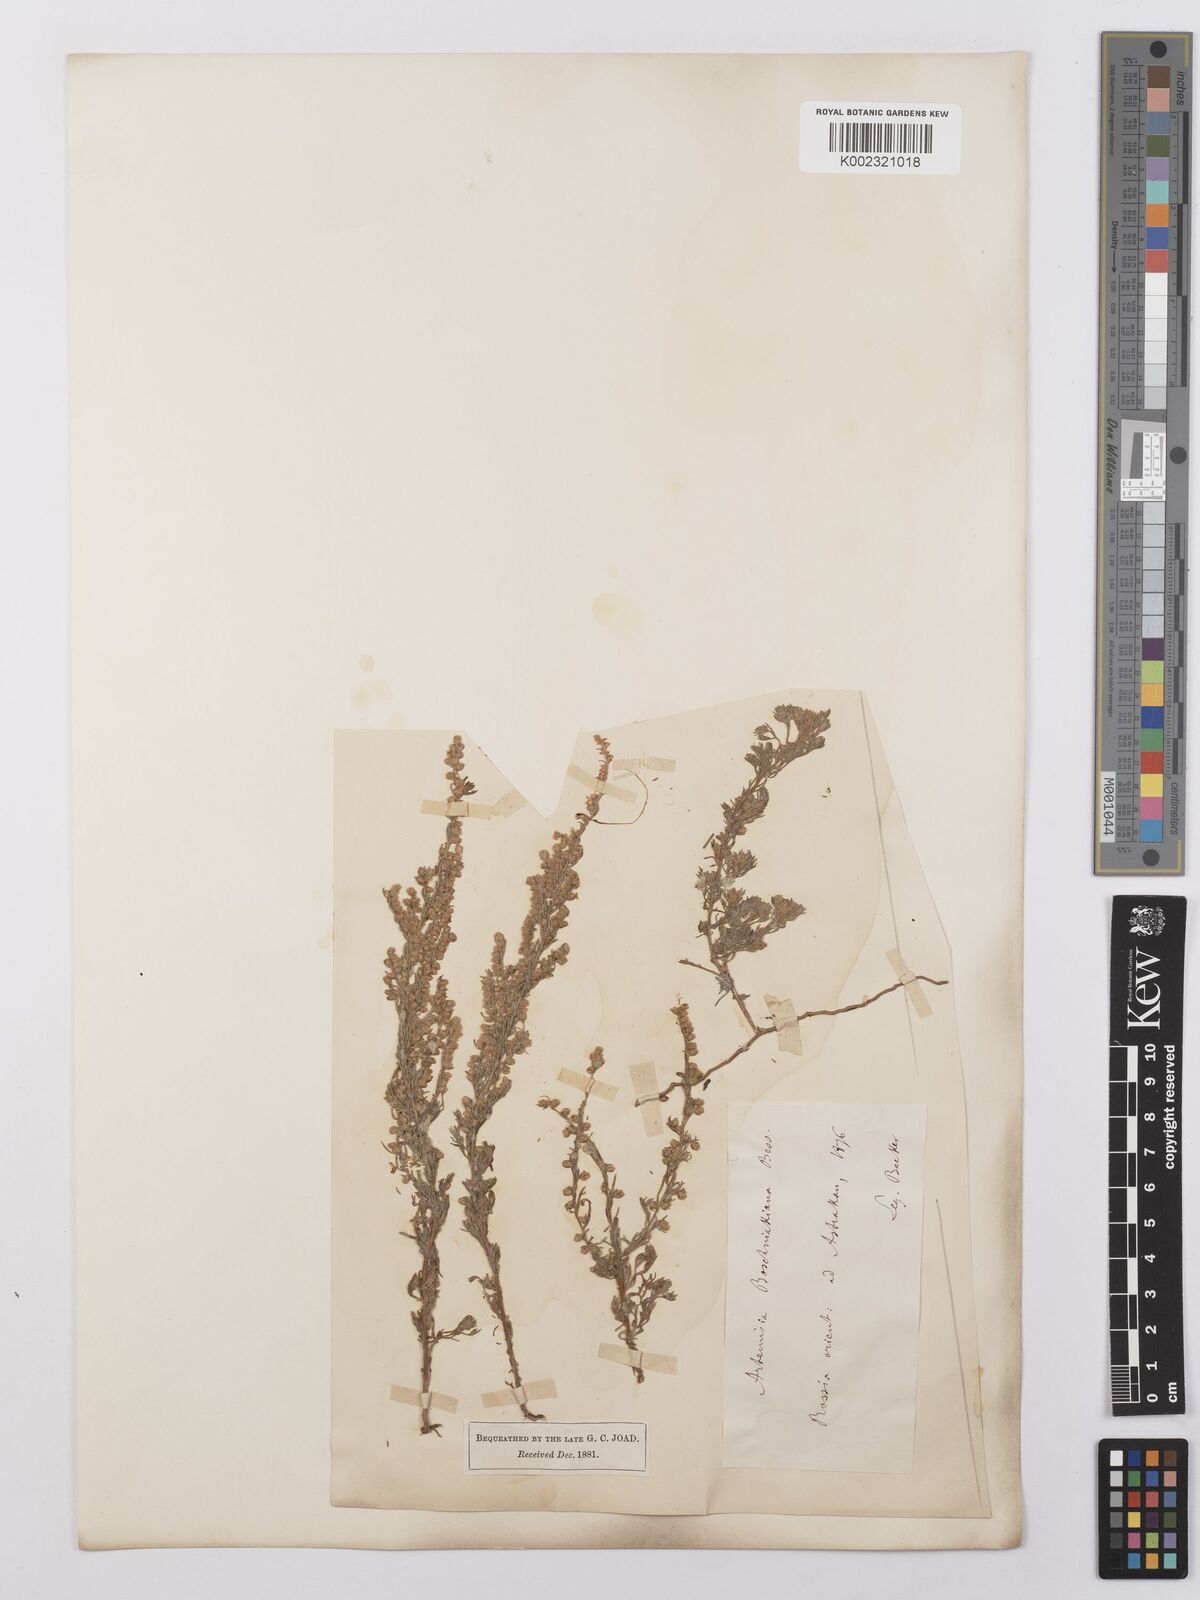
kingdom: Plantae
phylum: Tracheophyta
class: Magnoliopsida
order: Asterales
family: Asteraceae
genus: Artemisia
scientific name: Artemisia santonicum
